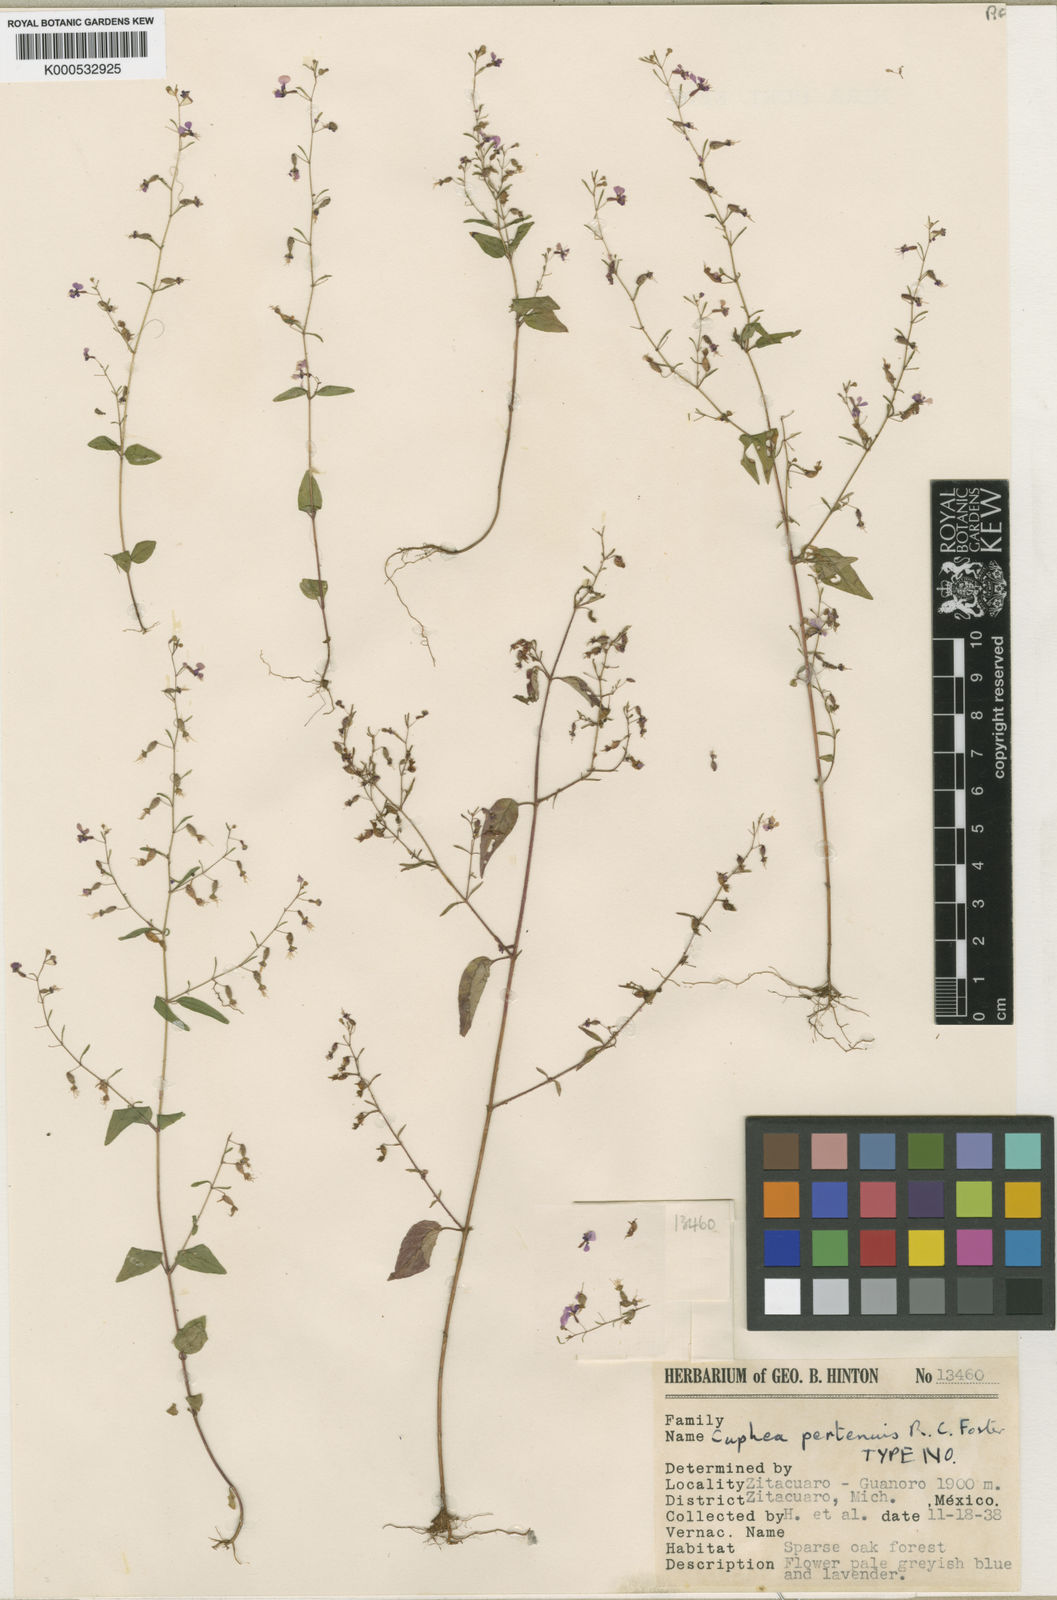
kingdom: Plantae
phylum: Tracheophyta
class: Magnoliopsida
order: Myrtales
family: Lythraceae
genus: Cuphea
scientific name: Cuphea pertenuis
